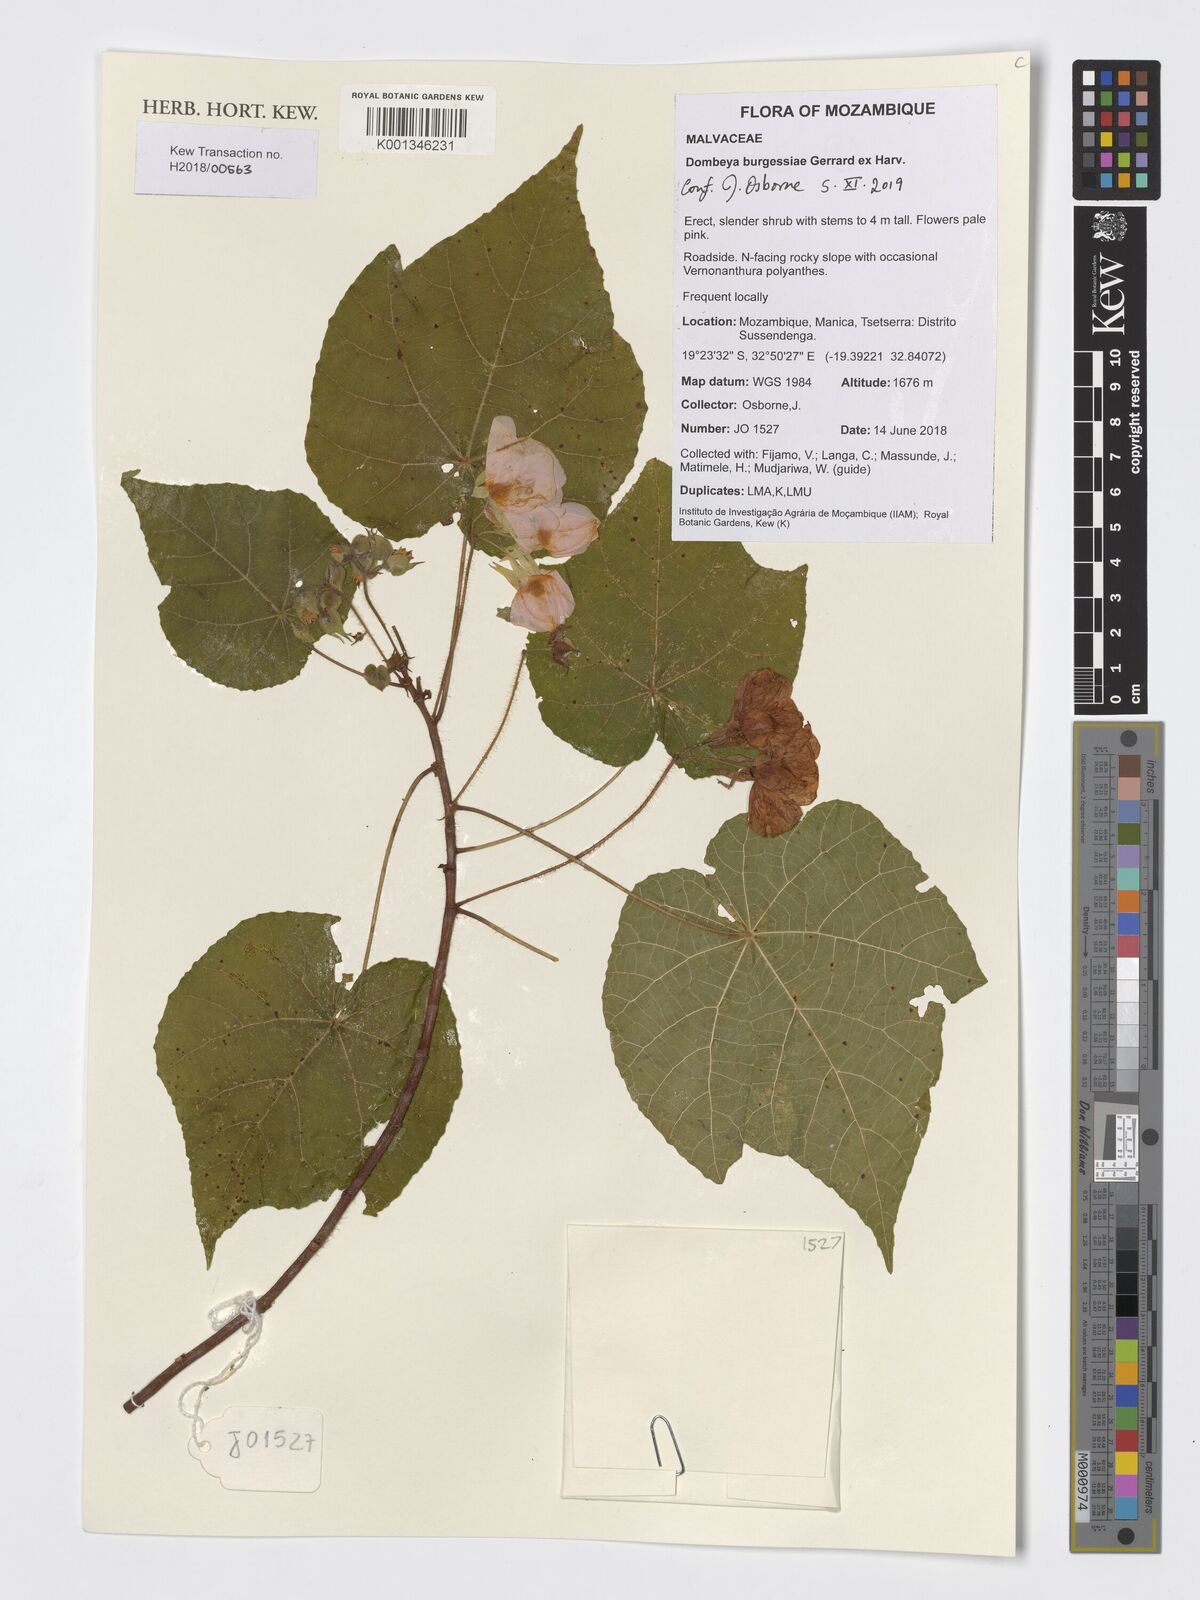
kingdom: Plantae
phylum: Tracheophyta
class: Magnoliopsida
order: Malvales
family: Malvaceae
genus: Dombeya
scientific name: Dombeya burgessiae
